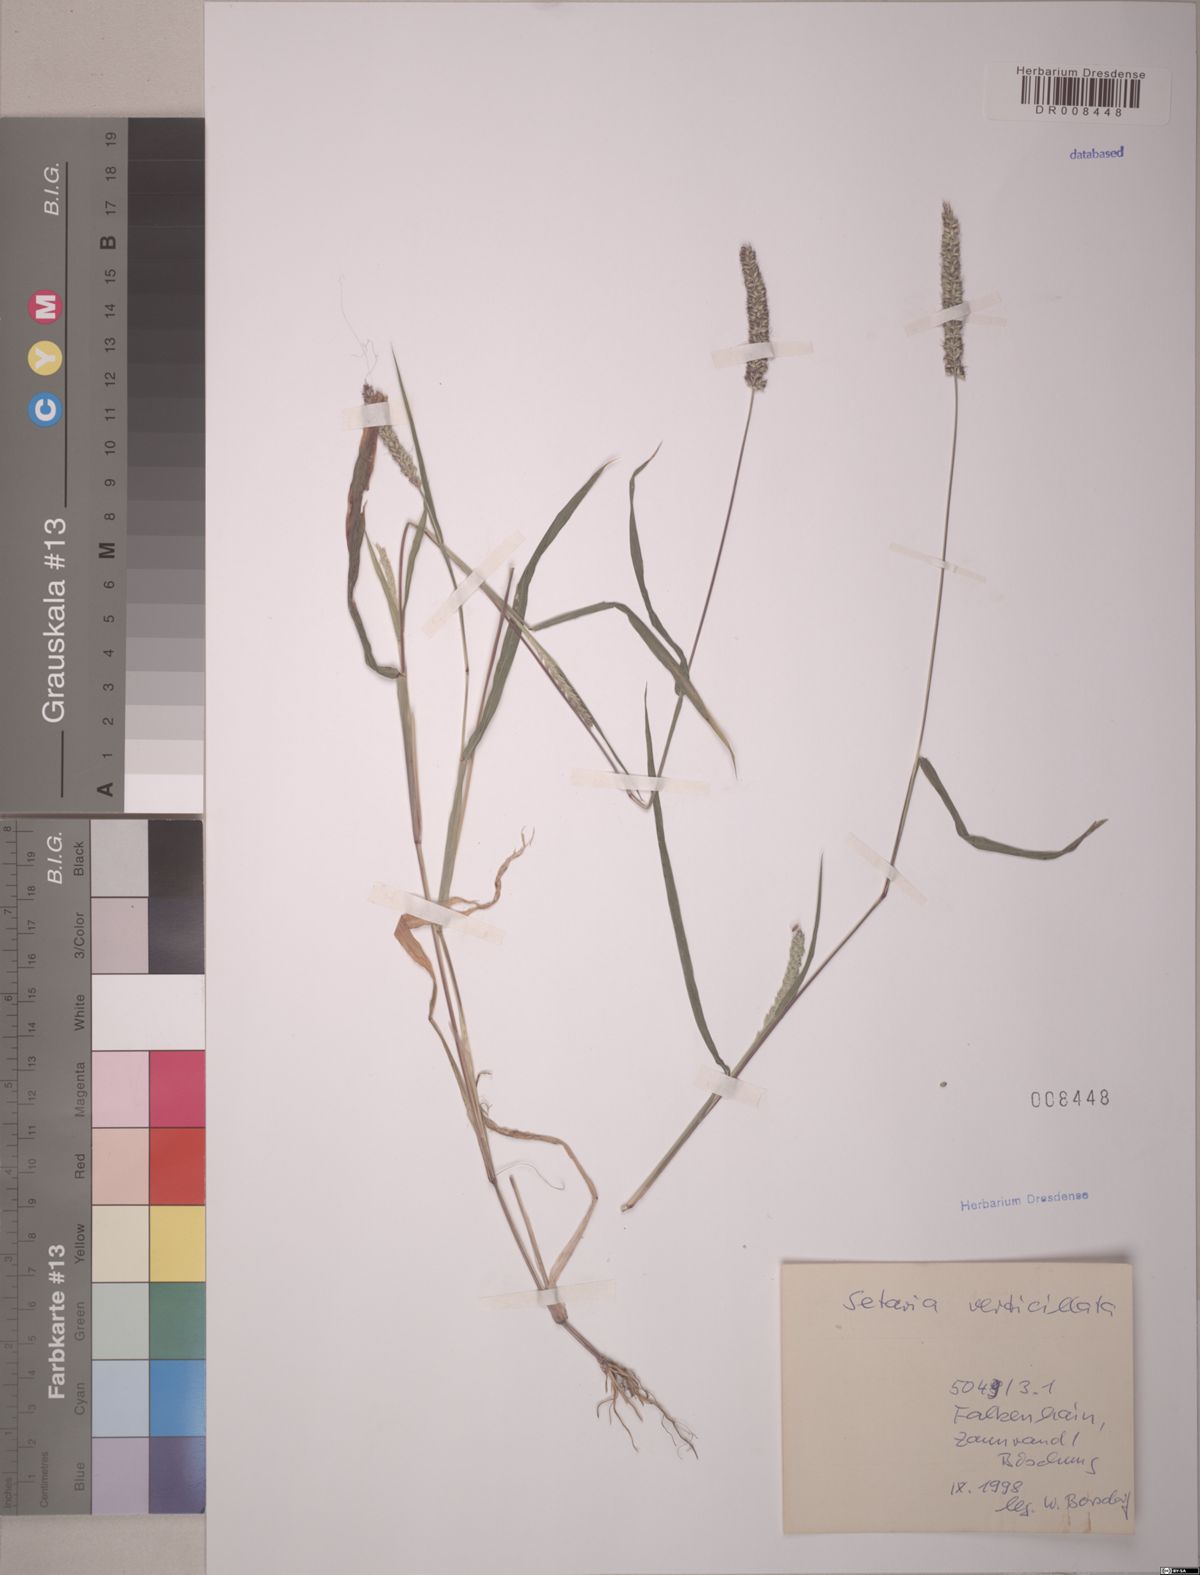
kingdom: Plantae
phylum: Tracheophyta
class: Liliopsida
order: Poales
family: Poaceae
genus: Setaria
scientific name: Setaria verticillata
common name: Hooked bristlegrass
